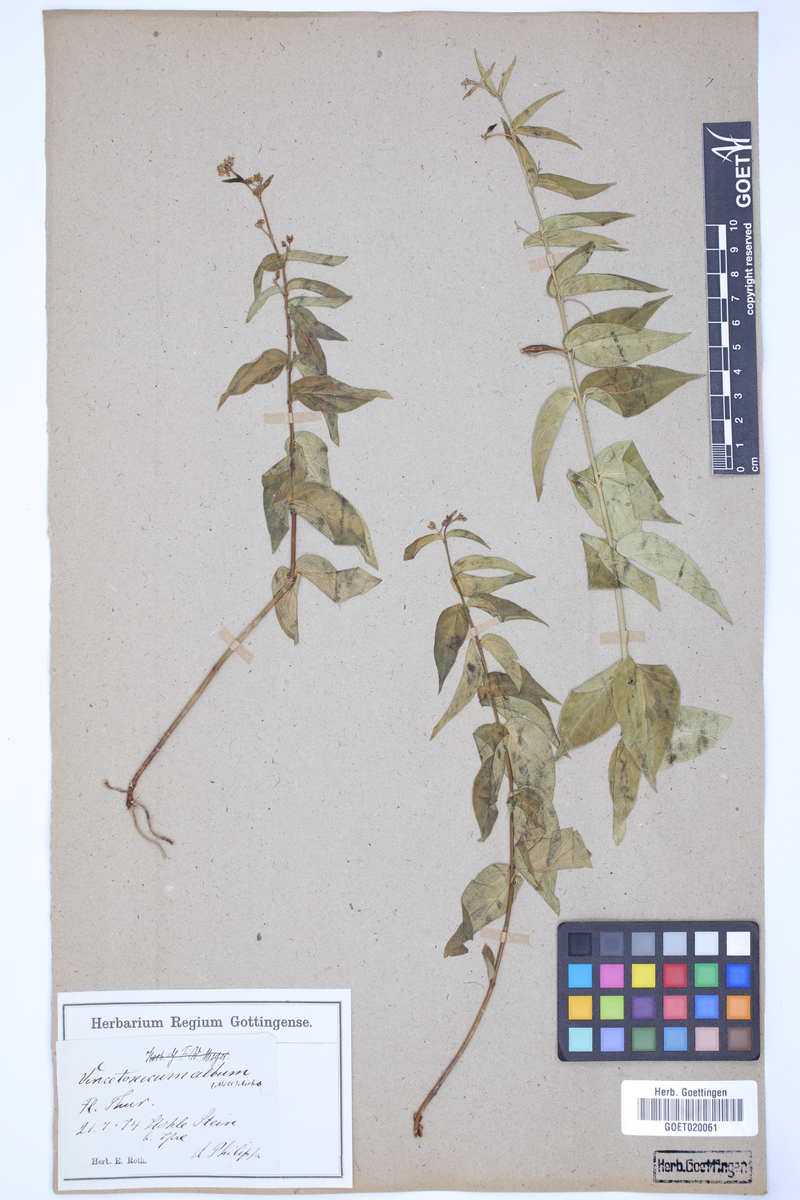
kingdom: Plantae
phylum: Tracheophyta
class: Magnoliopsida
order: Gentianales
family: Apocynaceae
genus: Vincetoxicum
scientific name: Vincetoxicum hirundinaria
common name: White swallowwort
